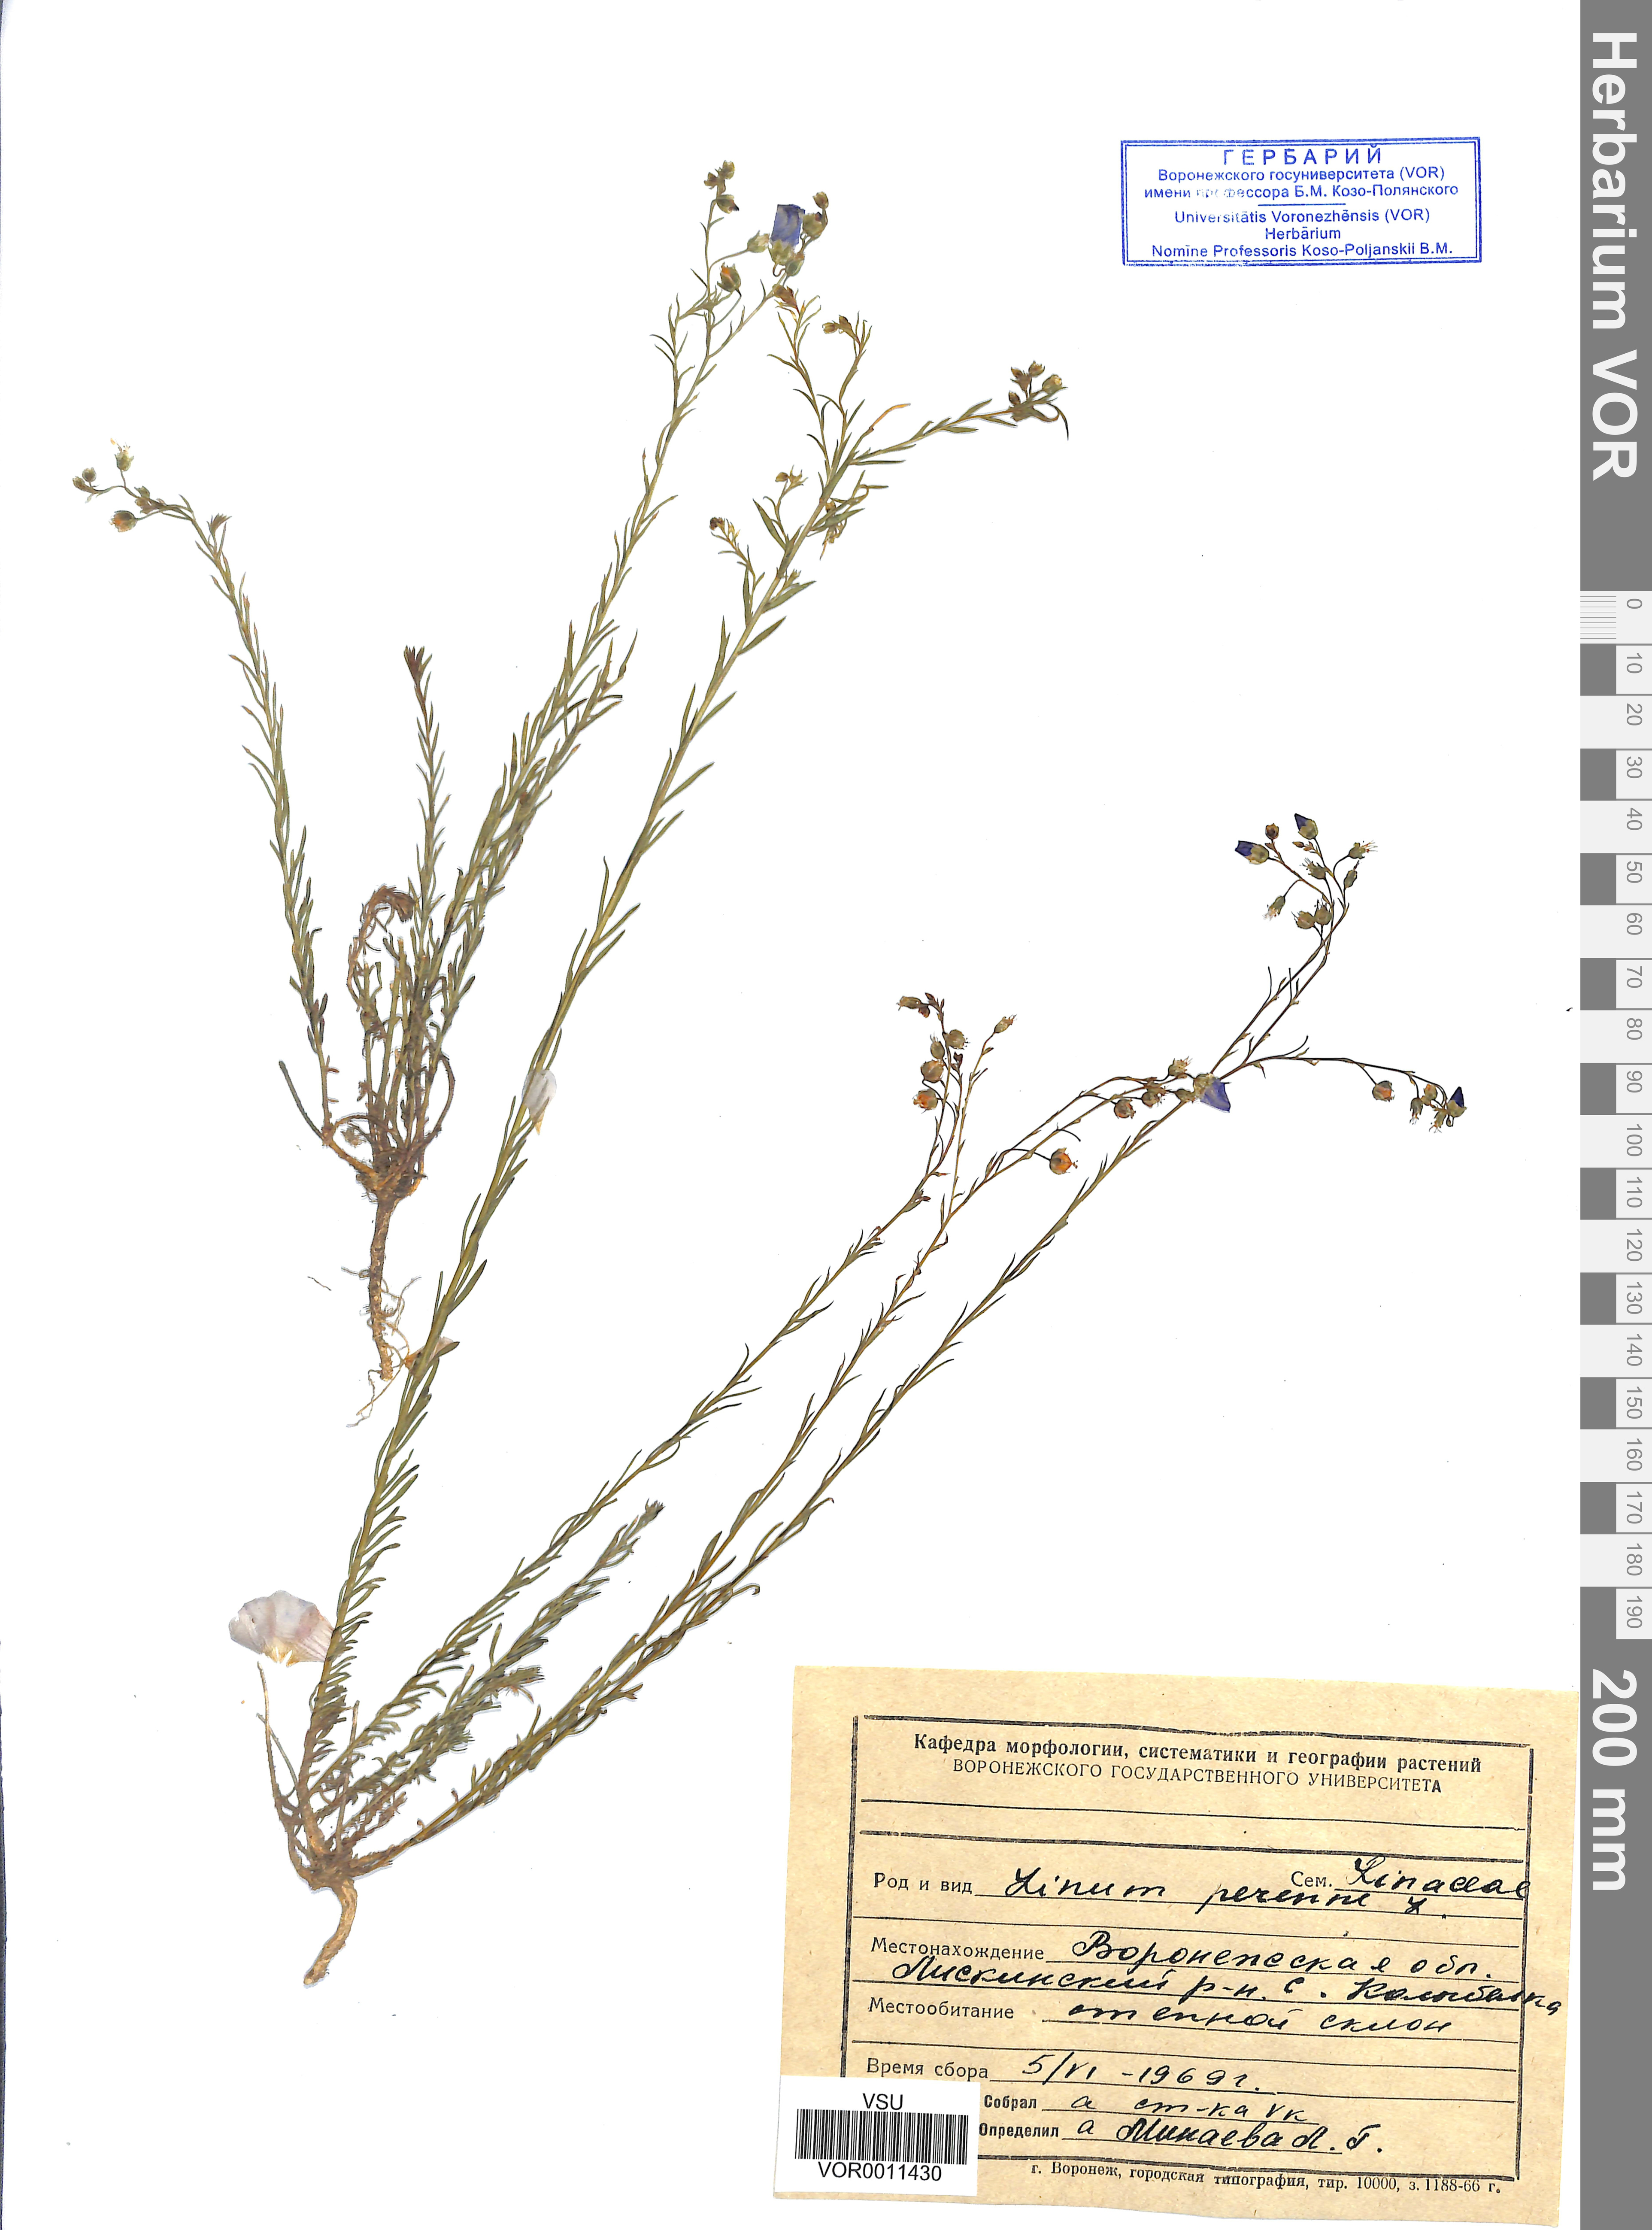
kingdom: Plantae
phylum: Tracheophyta
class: Magnoliopsida
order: Malpighiales
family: Linaceae
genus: Linum
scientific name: Linum perenne
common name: Blue flax
